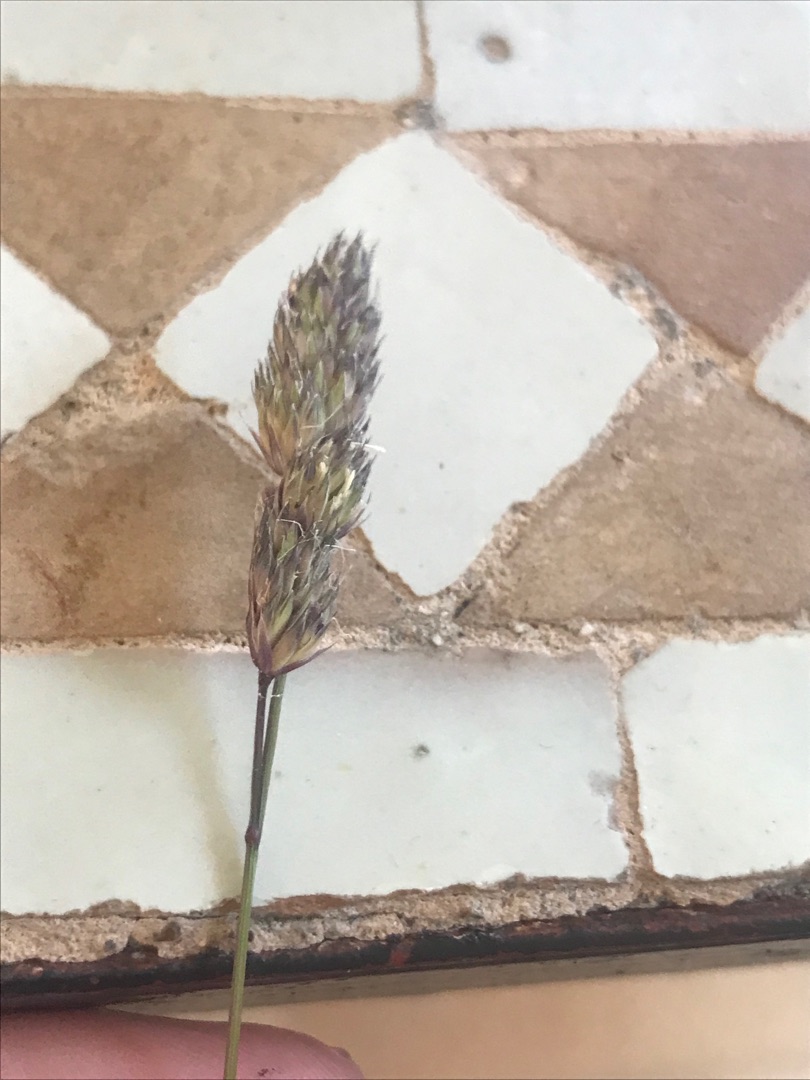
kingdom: Plantae
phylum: Tracheophyta
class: Liliopsida
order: Poales
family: Poaceae
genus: Dactylis
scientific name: Dactylis glomerata
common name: Almindelig hundegræs
